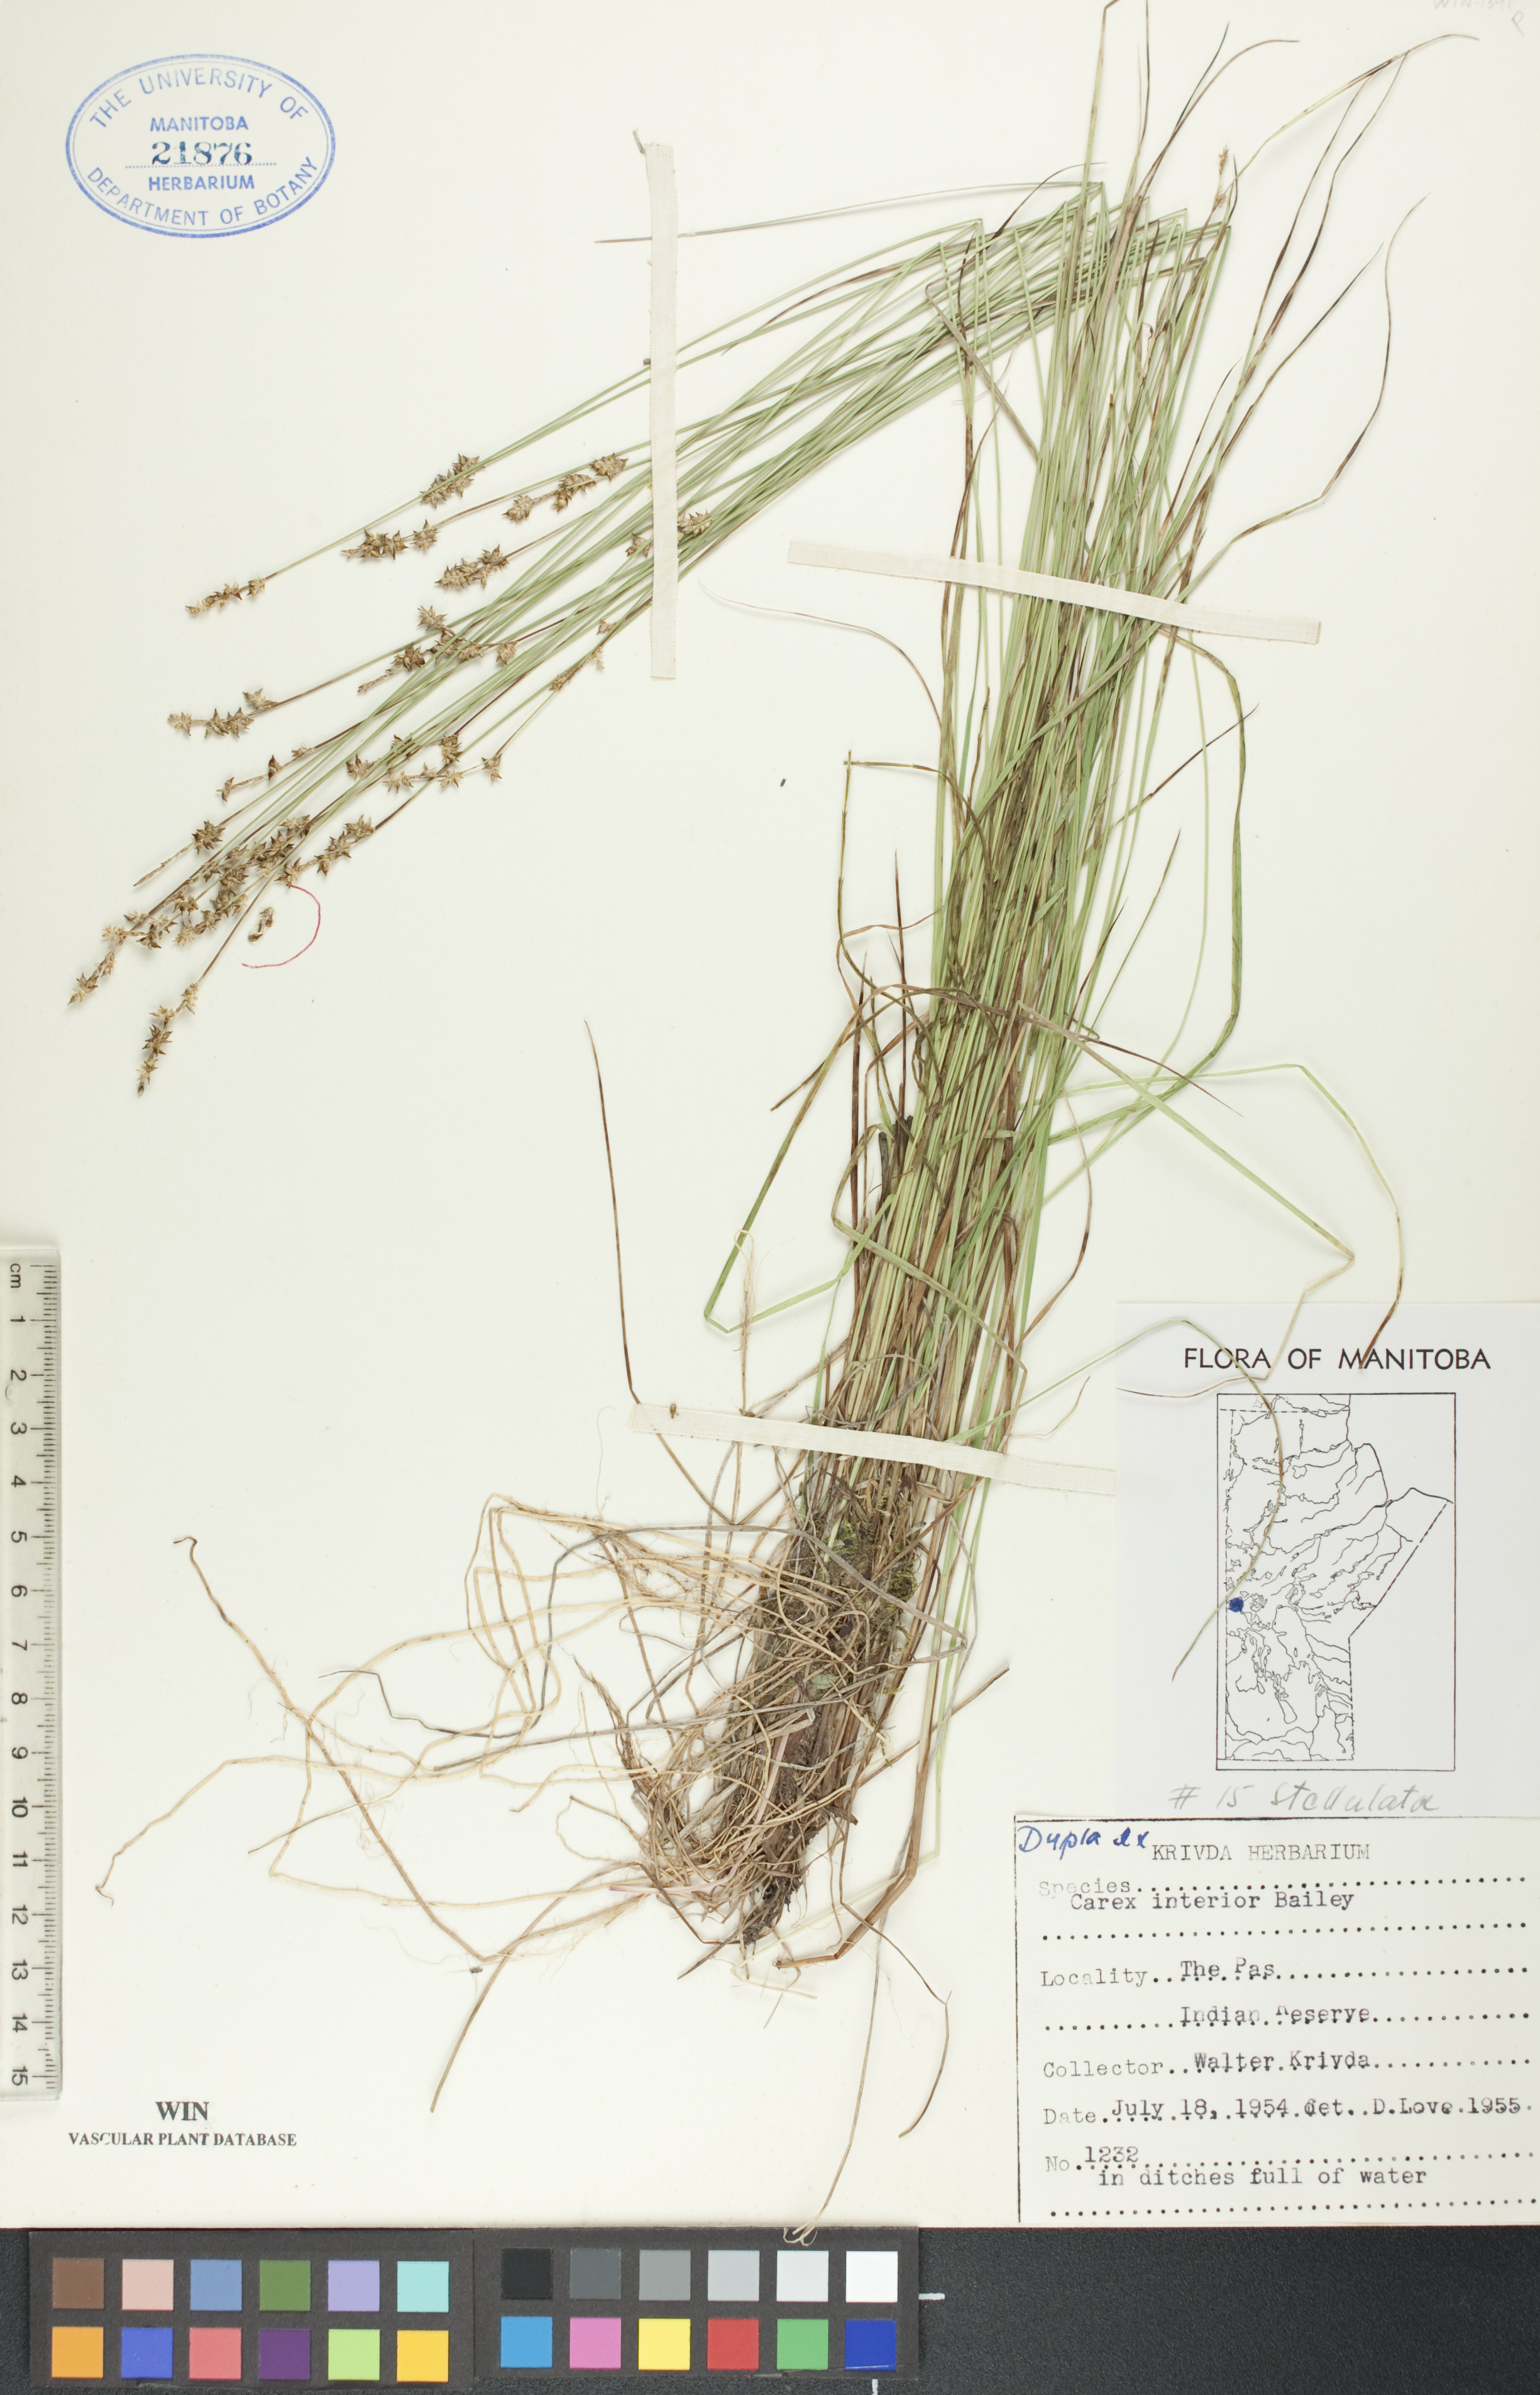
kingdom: Plantae
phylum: Tracheophyta
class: Liliopsida
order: Poales
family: Cyperaceae
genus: Carex
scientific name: Carex interior
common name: Inland sedge
